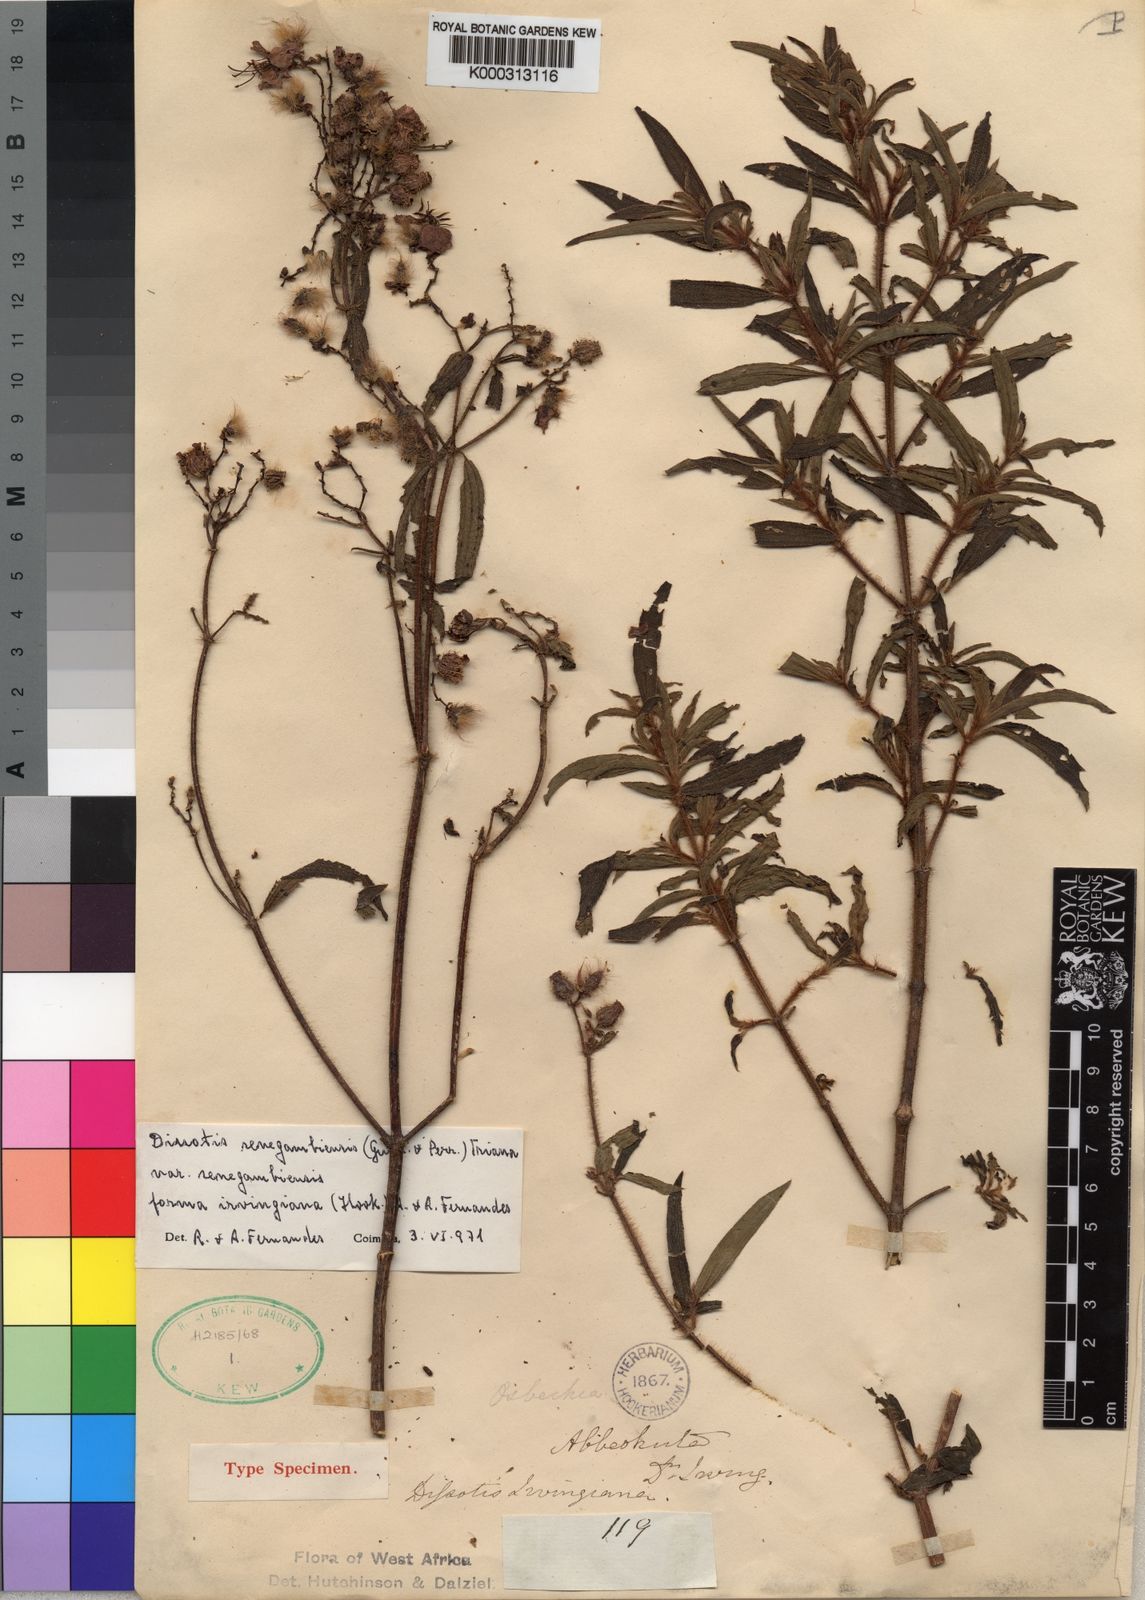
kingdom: Plantae
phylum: Tracheophyta
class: Magnoliopsida
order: Myrtales
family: Melastomataceae
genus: Antherotoma
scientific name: Antherotoma
